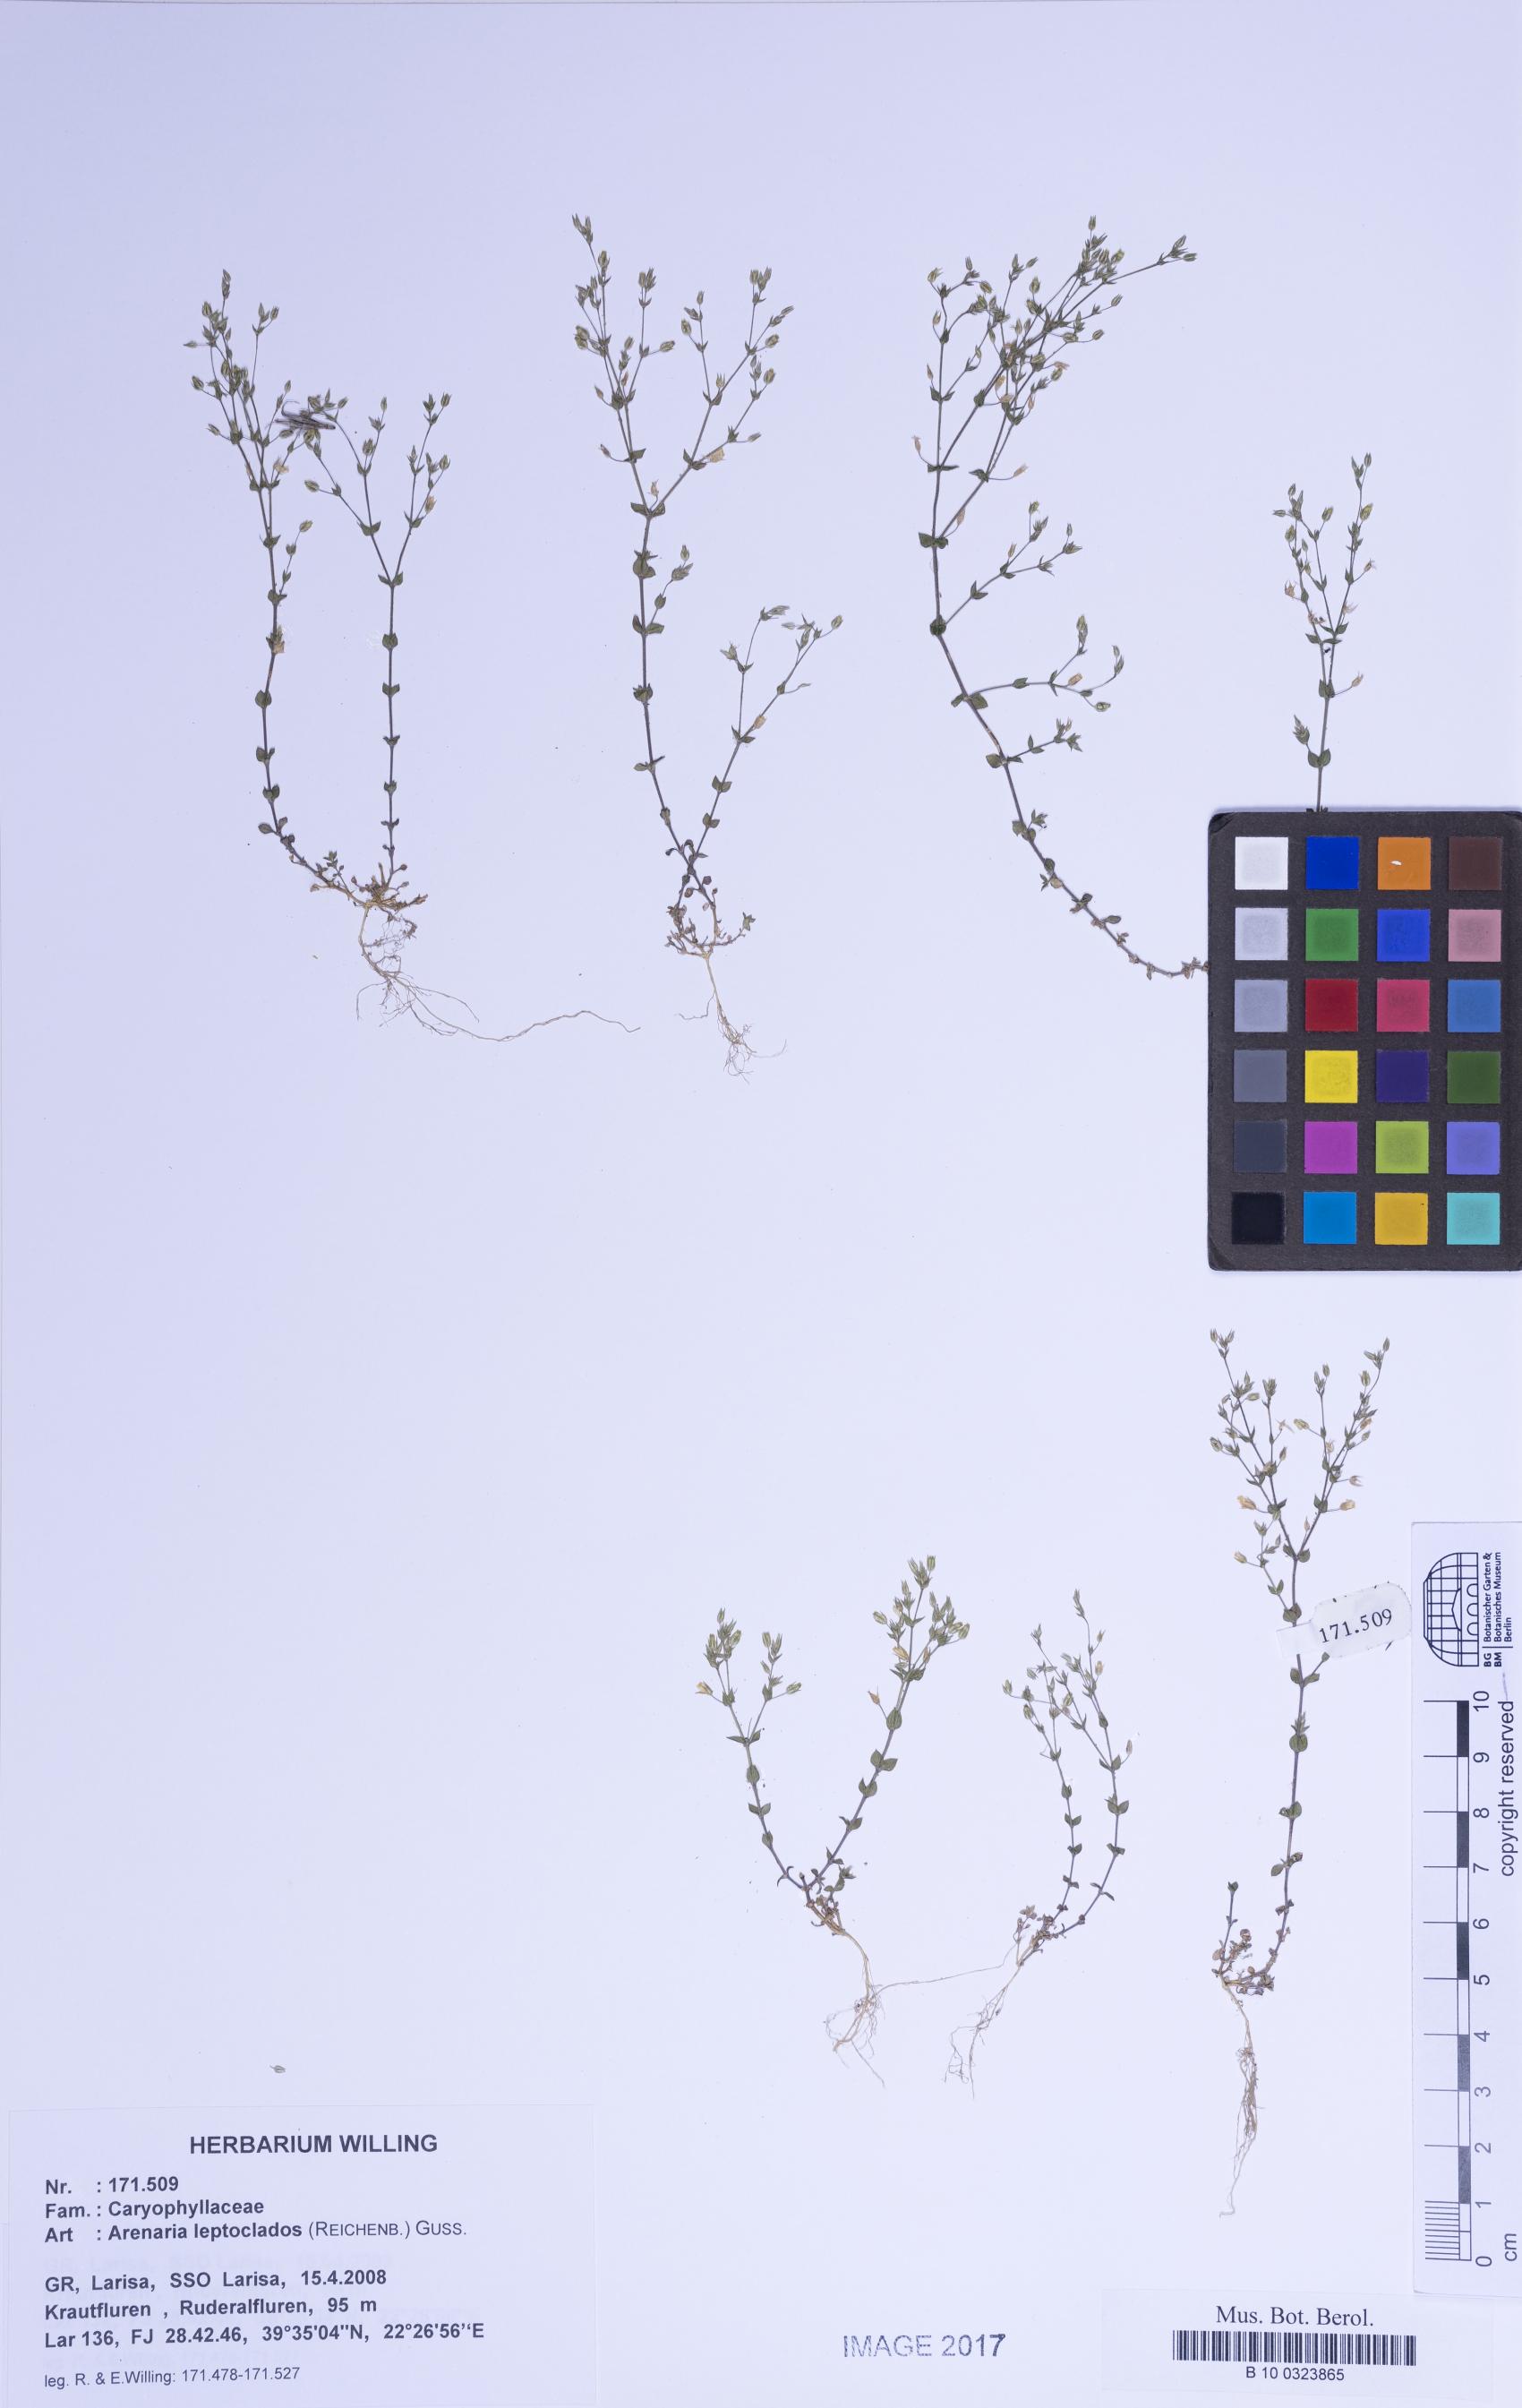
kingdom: Plantae
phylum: Tracheophyta
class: Magnoliopsida
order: Caryophyllales
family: Caryophyllaceae
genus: Arenaria
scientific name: Arenaria leptoclados
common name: Thyme-leaved sandwort
